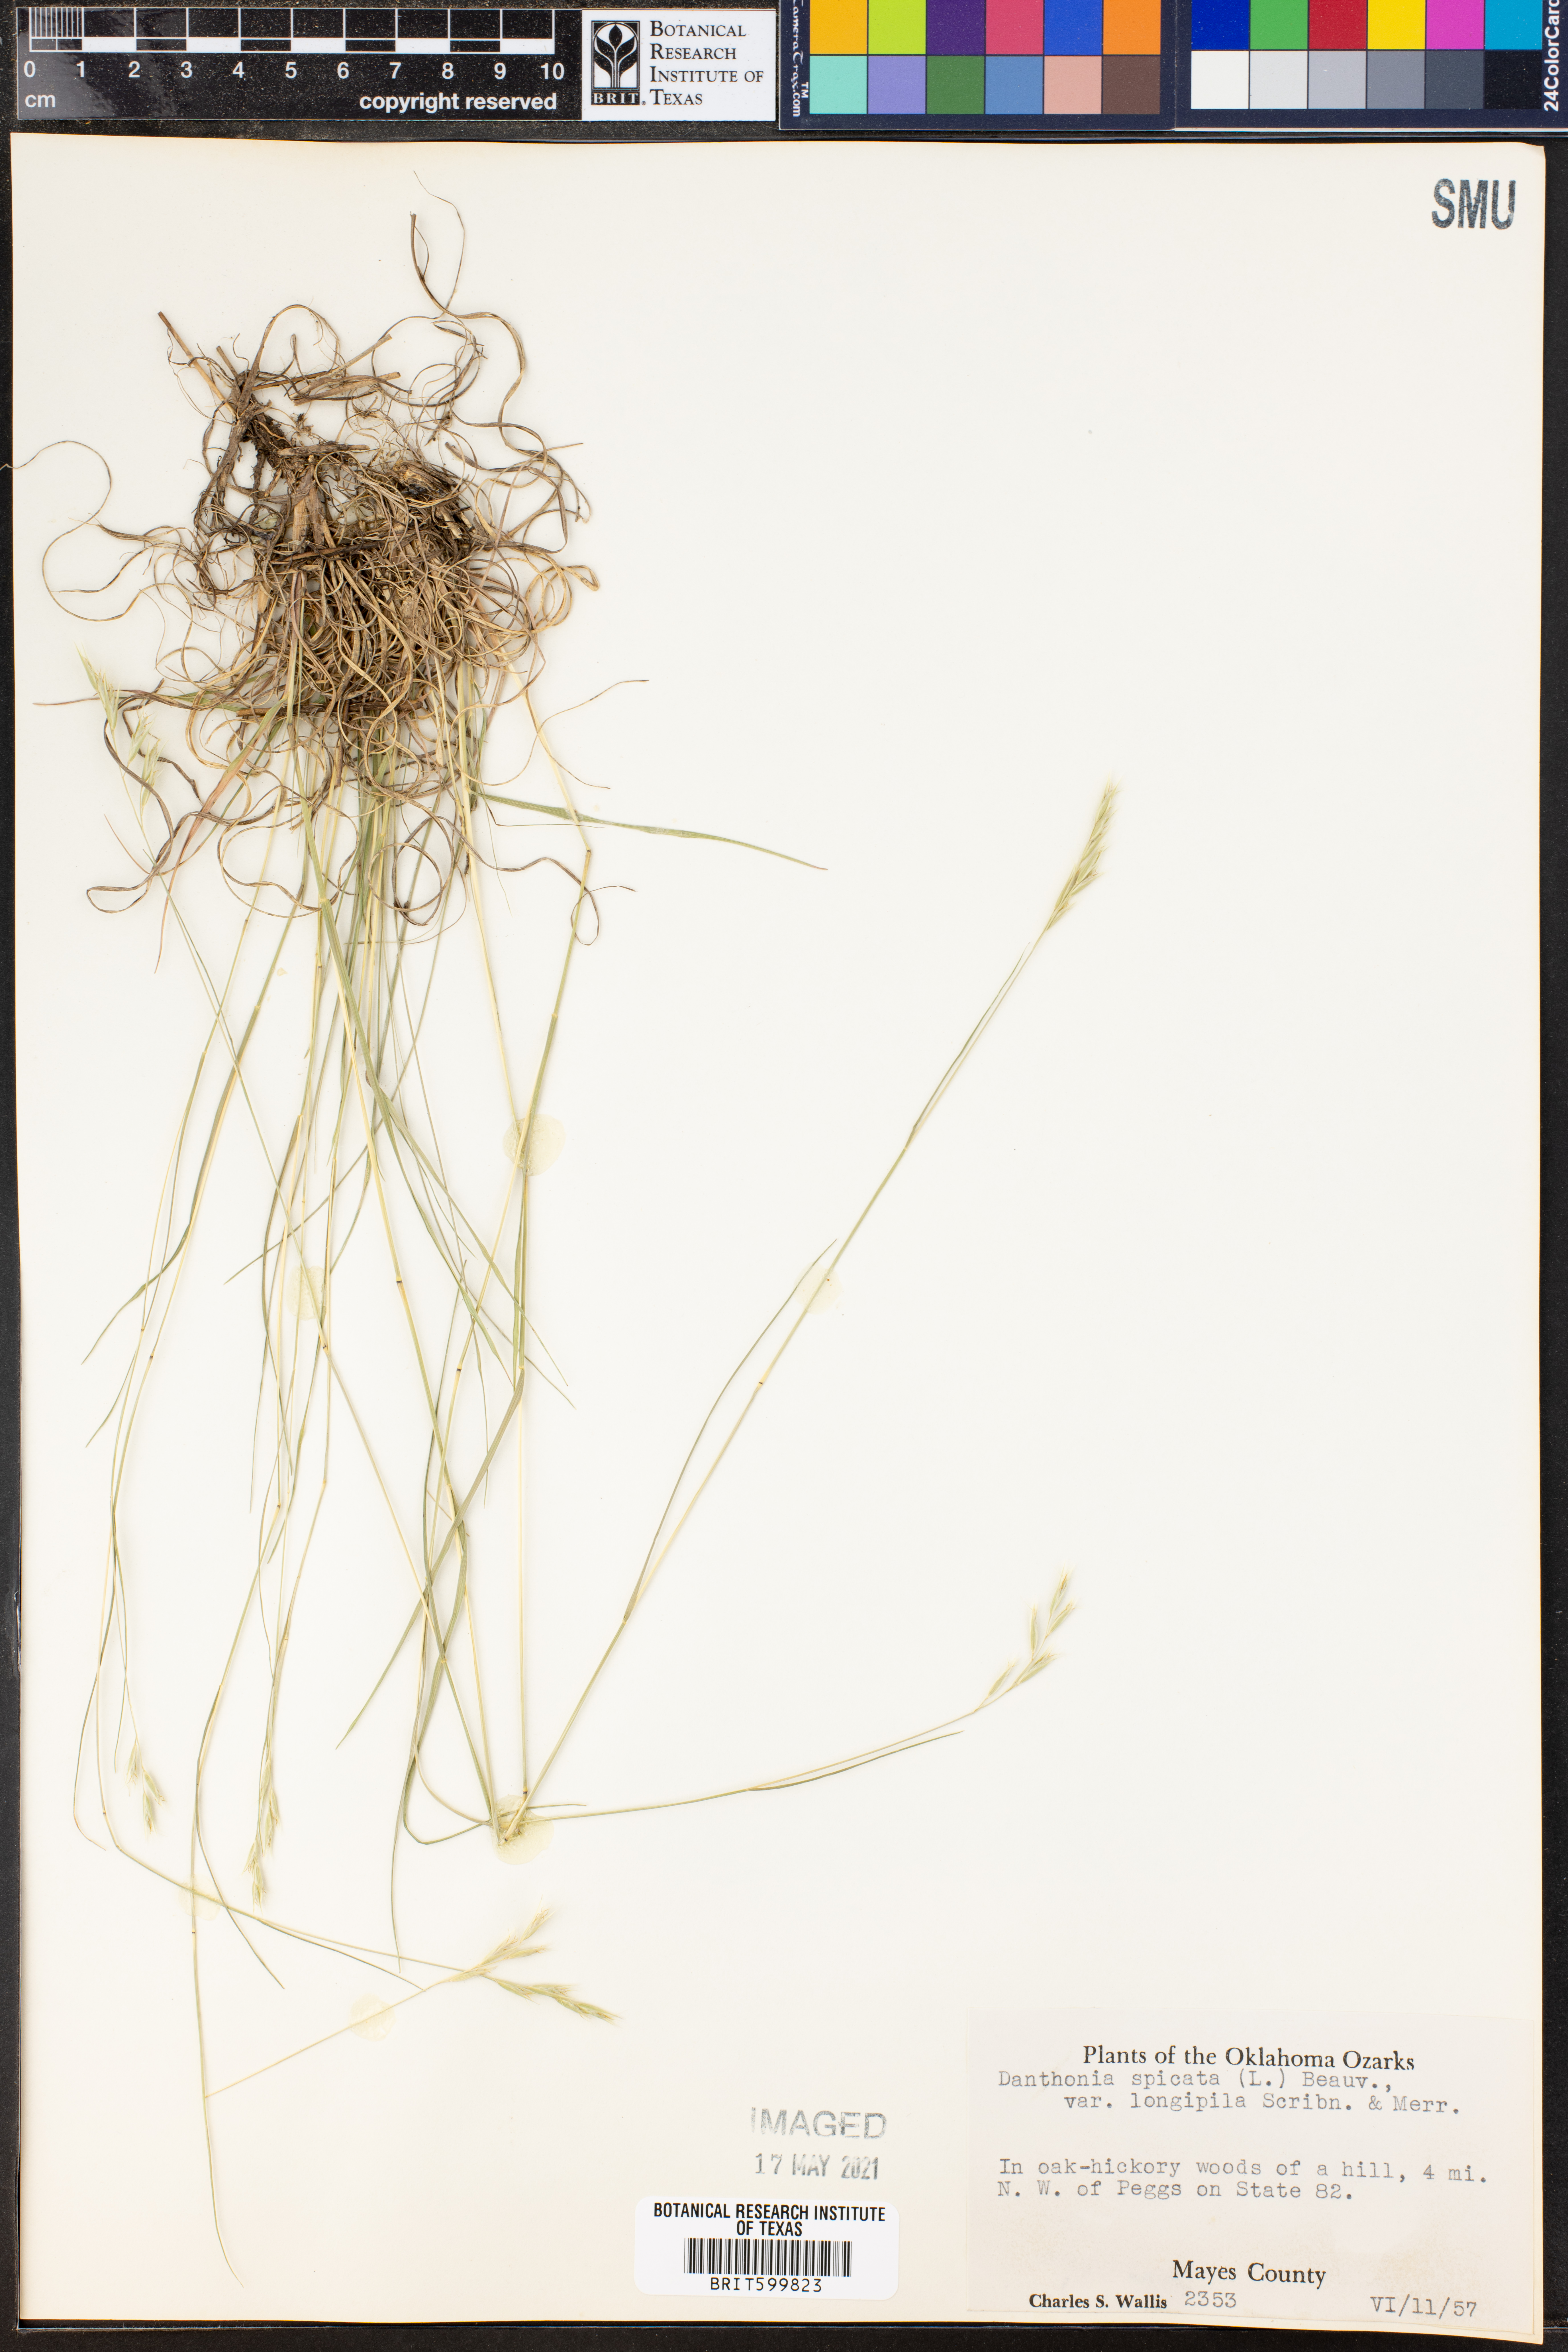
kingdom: Plantae
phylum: Tracheophyta
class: Liliopsida
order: Poales
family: Poaceae
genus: Danthonia
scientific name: Danthonia spicata
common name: Common wild oatgrass
